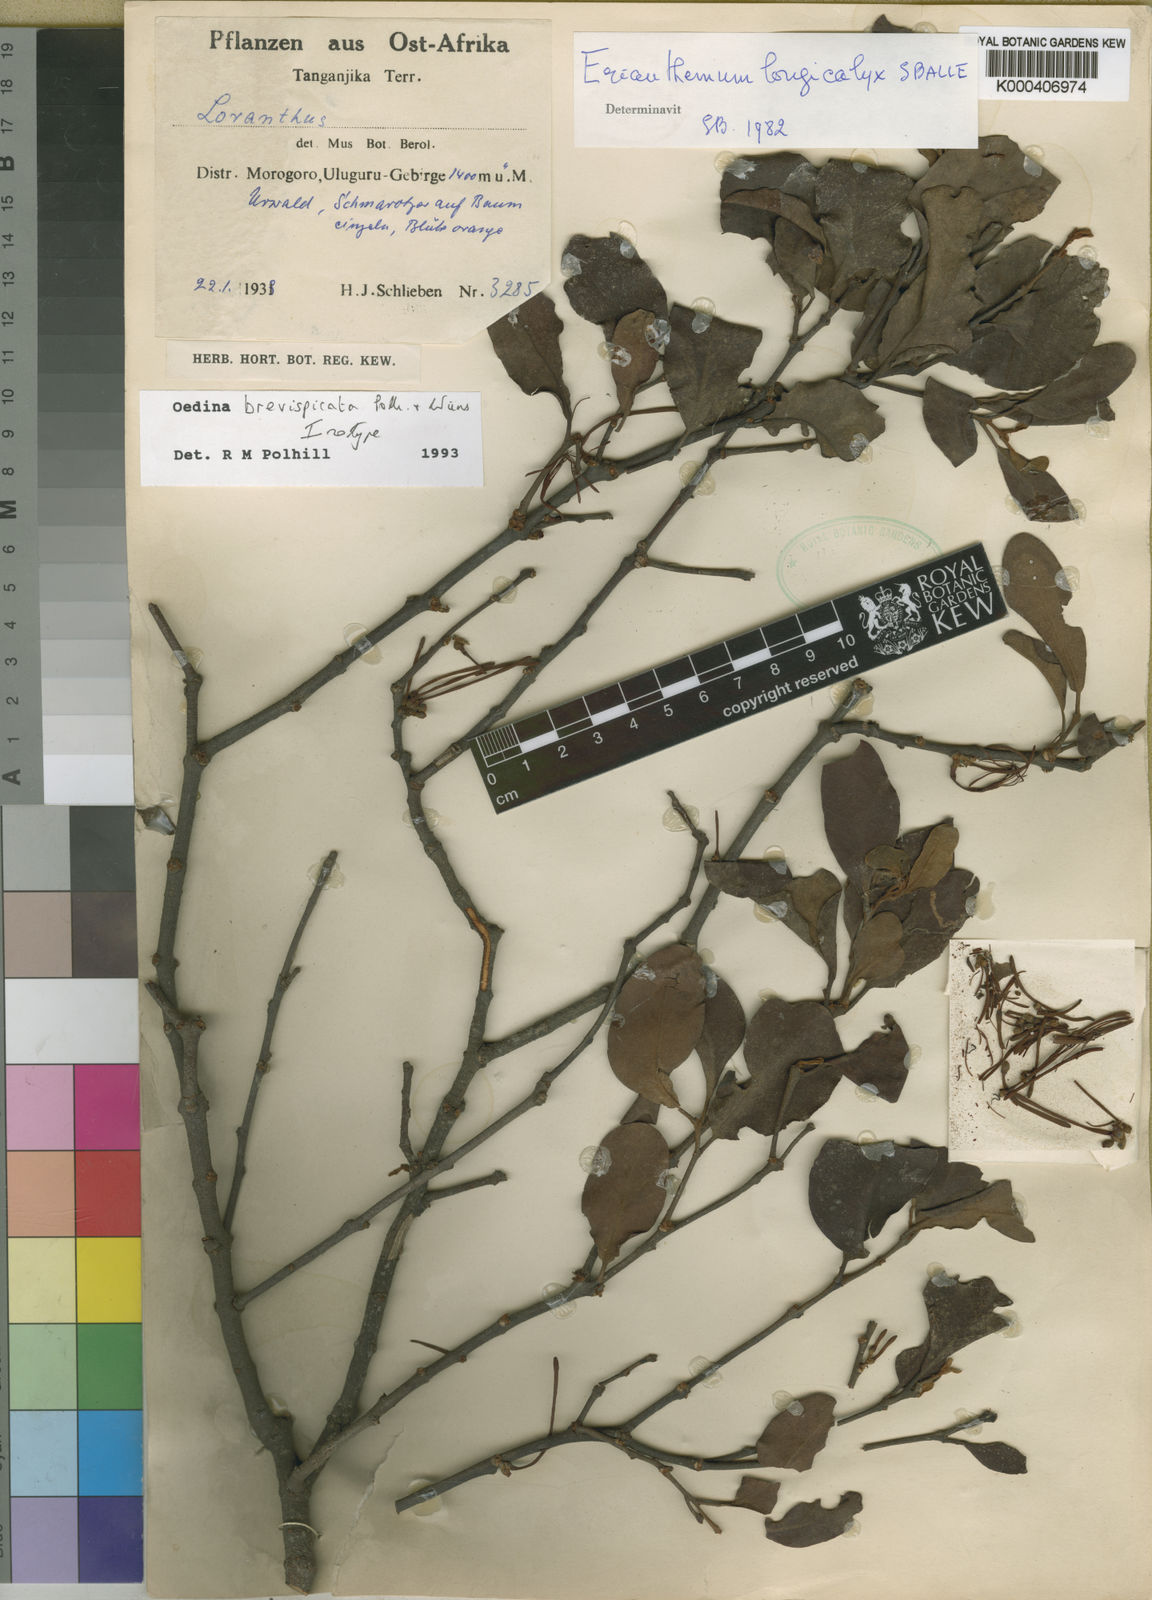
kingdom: Plantae
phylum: Tracheophyta
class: Magnoliopsida
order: Santalales
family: Loranthaceae
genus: Oedina
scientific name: Oedina brevispicata
